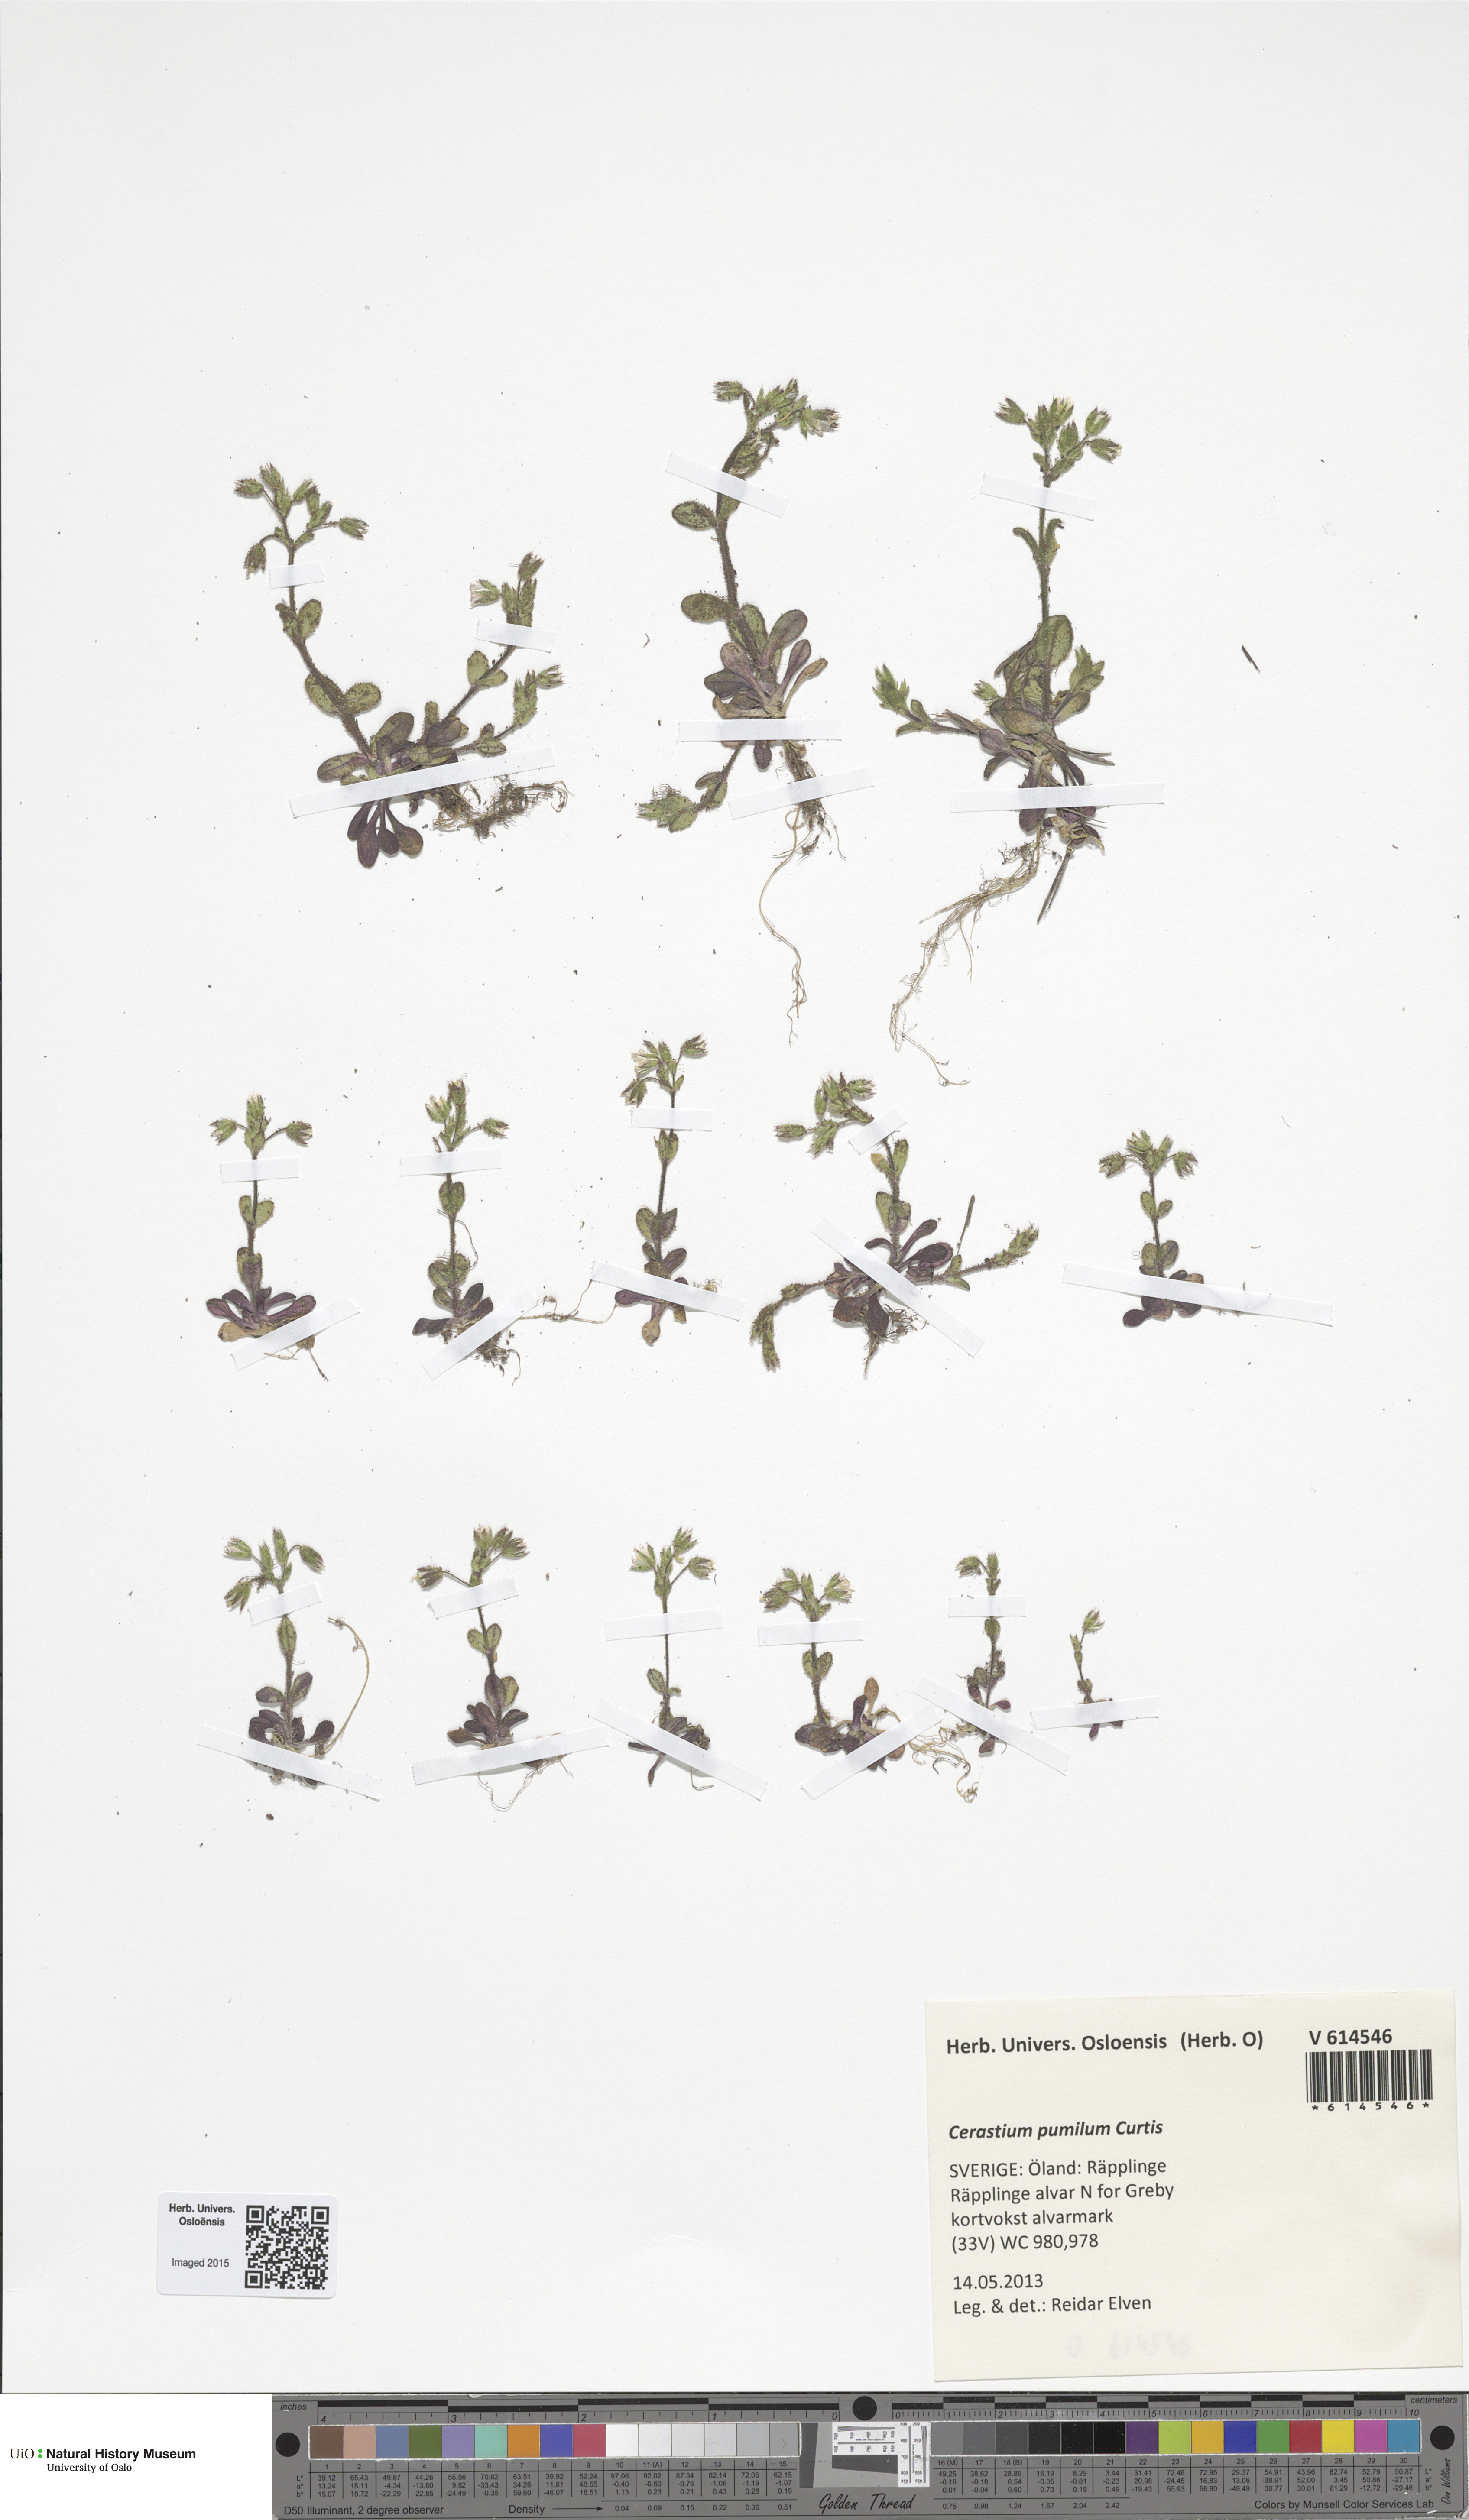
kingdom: Plantae
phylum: Tracheophyta
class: Magnoliopsida
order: Caryophyllales
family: Caryophyllaceae
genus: Cerastium
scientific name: Cerastium pumilum
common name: Dwarf mouse-ear
